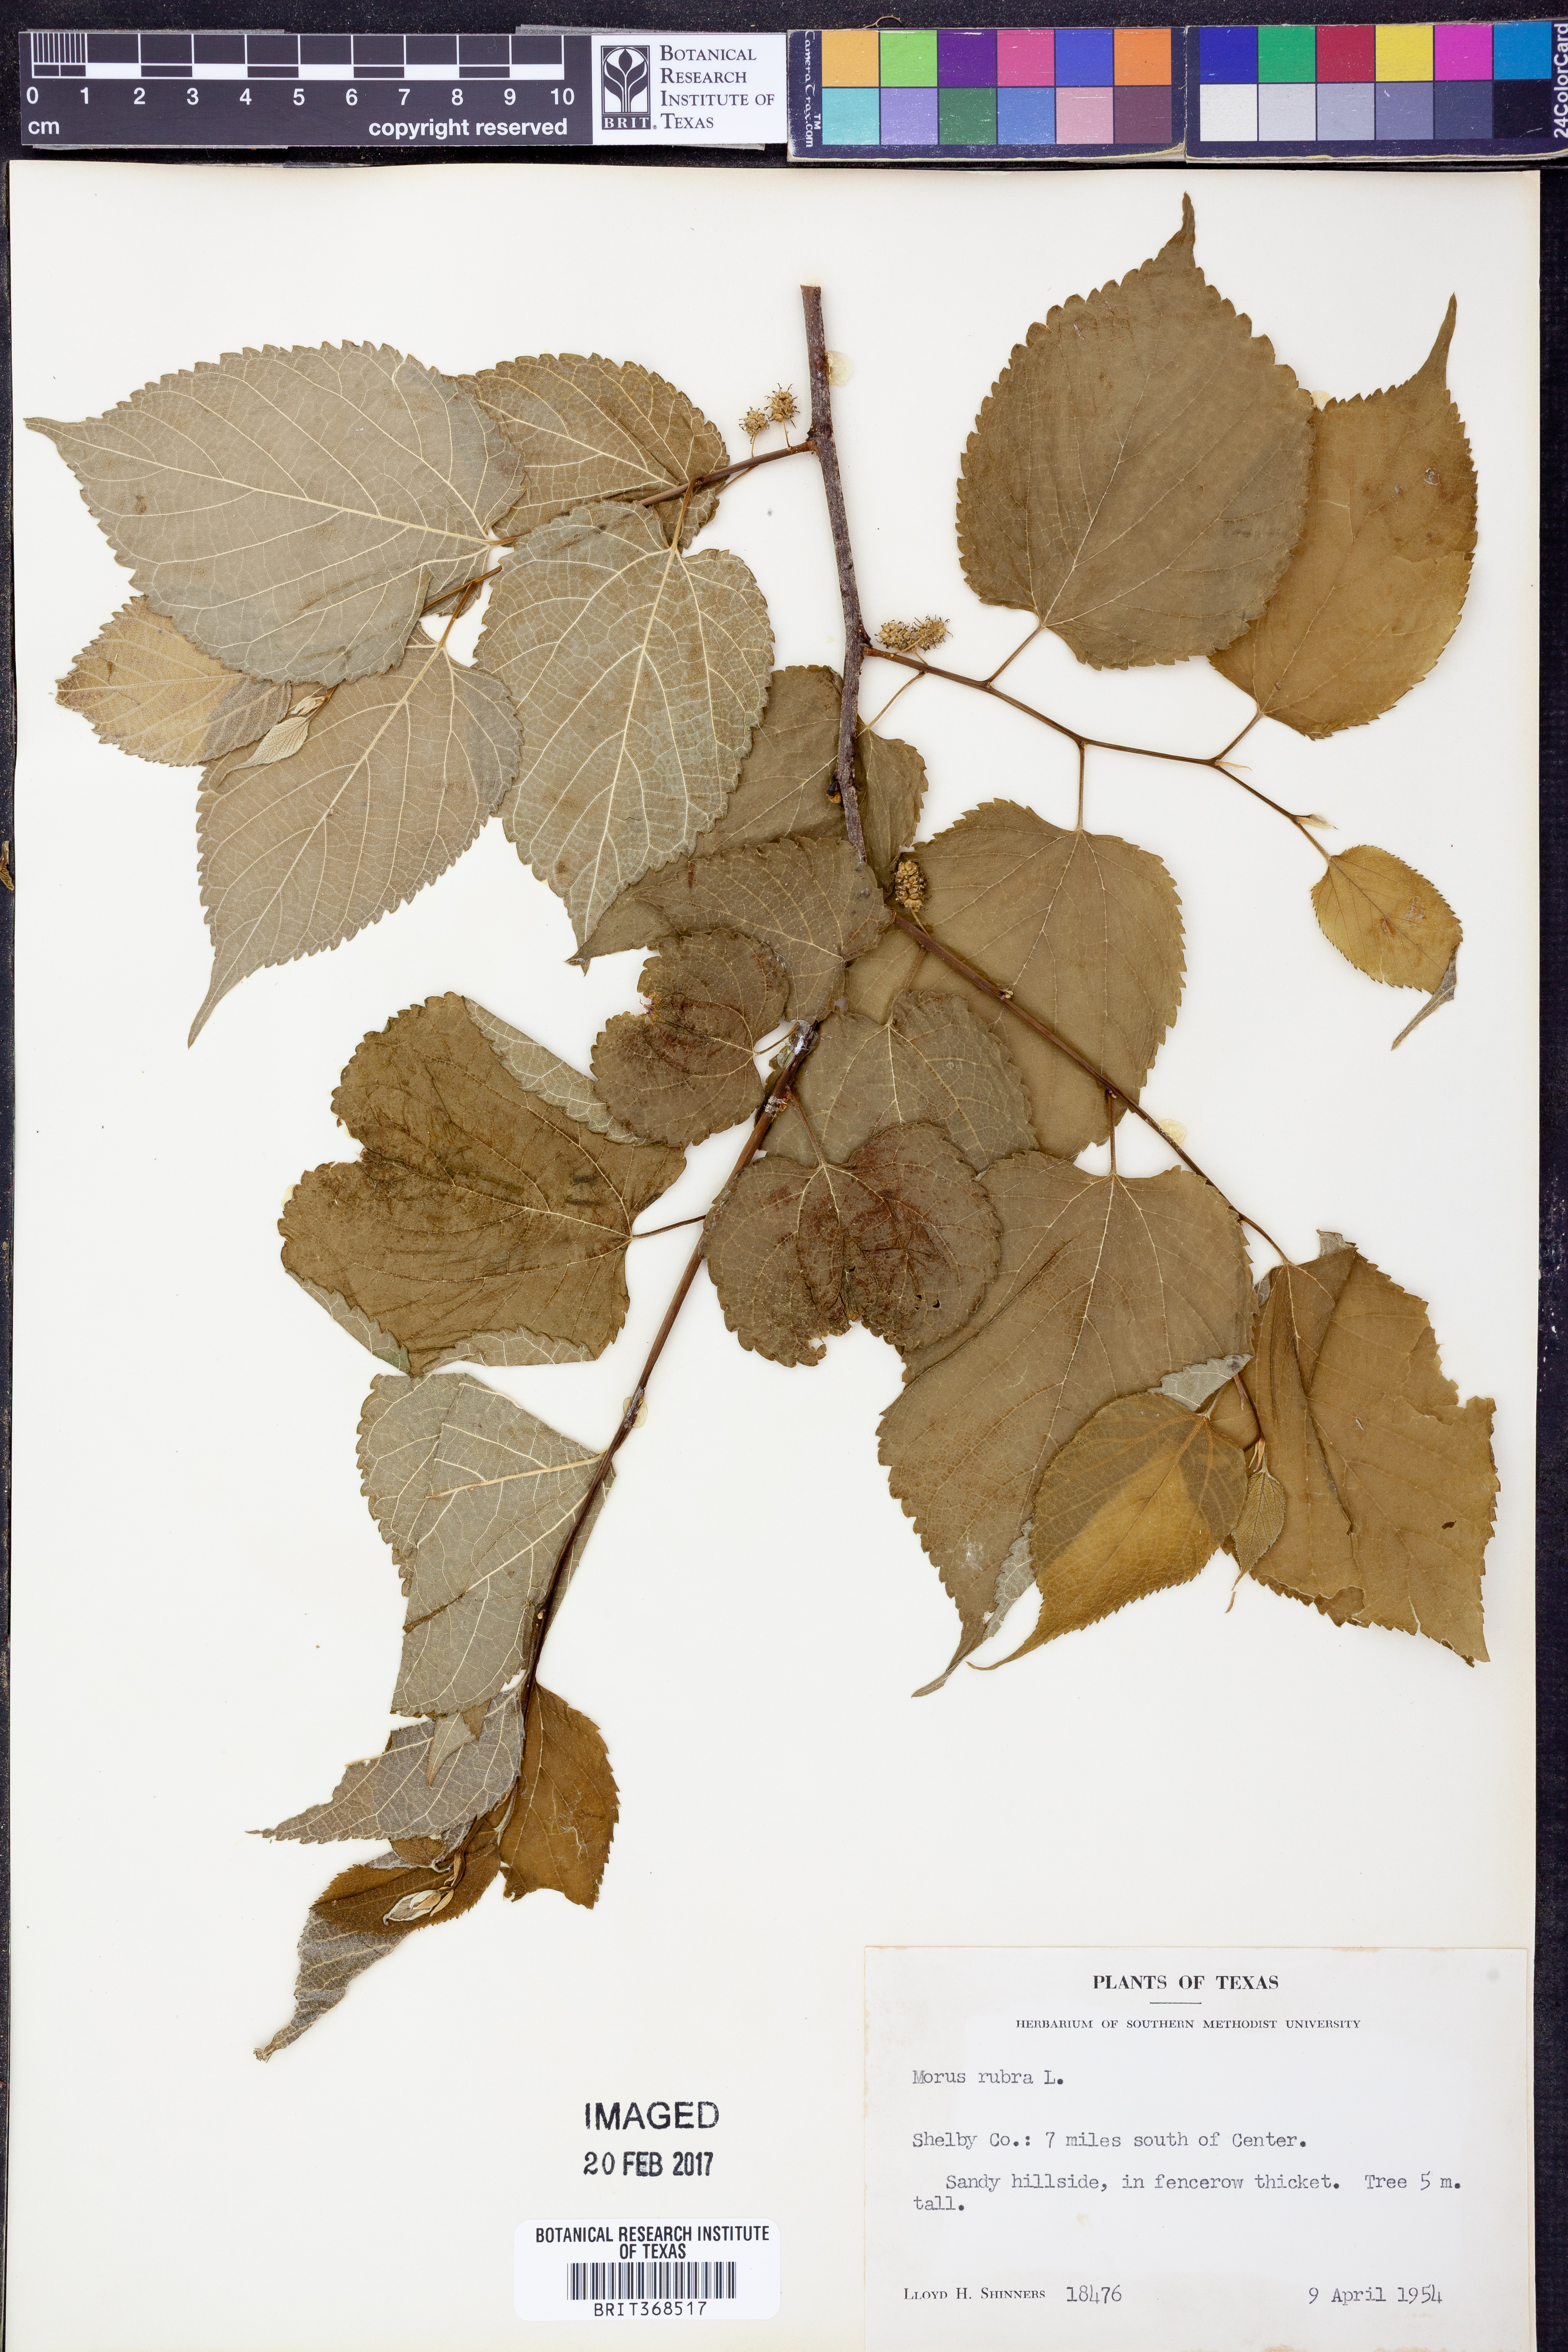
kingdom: Plantae
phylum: Tracheophyta
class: Magnoliopsida
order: Rosales
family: Moraceae
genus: Morus
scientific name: Morus rubra
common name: Red mulberry
